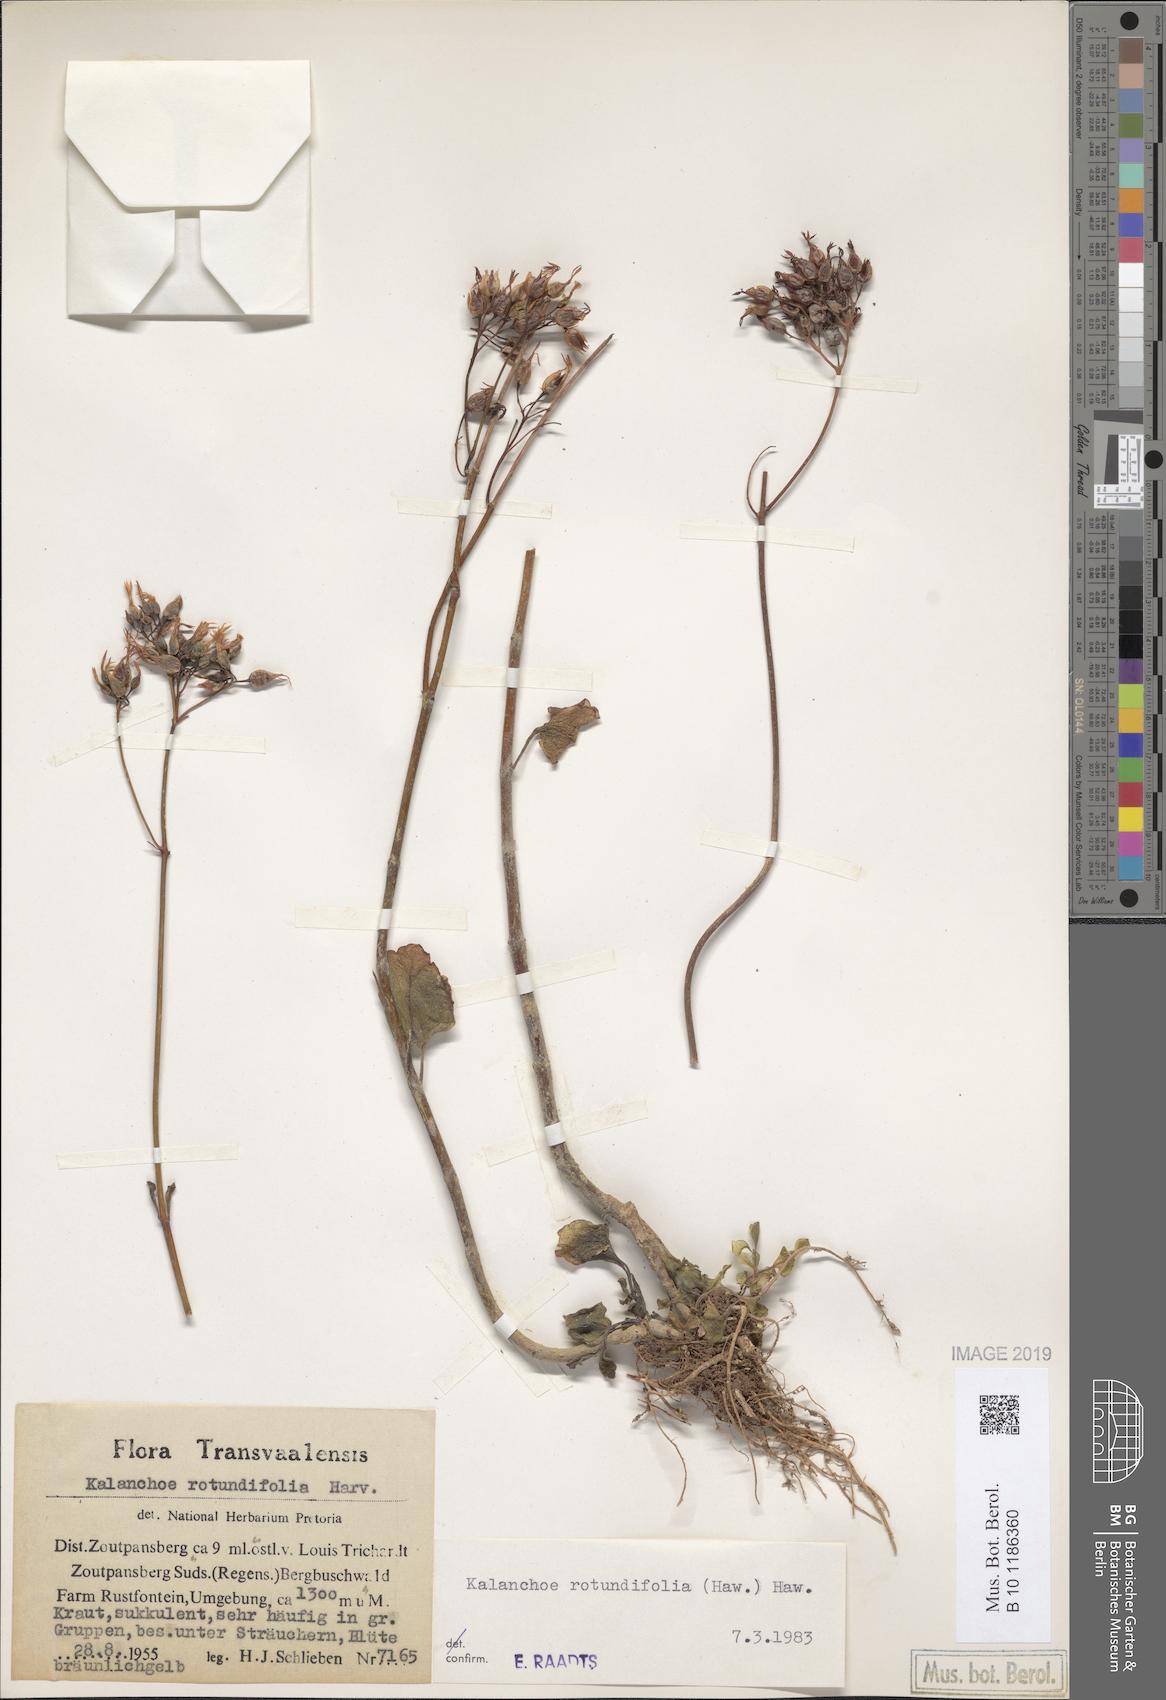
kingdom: Plantae
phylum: Tracheophyta
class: Magnoliopsida
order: Saxifragales
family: Crassulaceae
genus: Kalanchoe
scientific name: Kalanchoe rotundifolia
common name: Common kalanchoe
